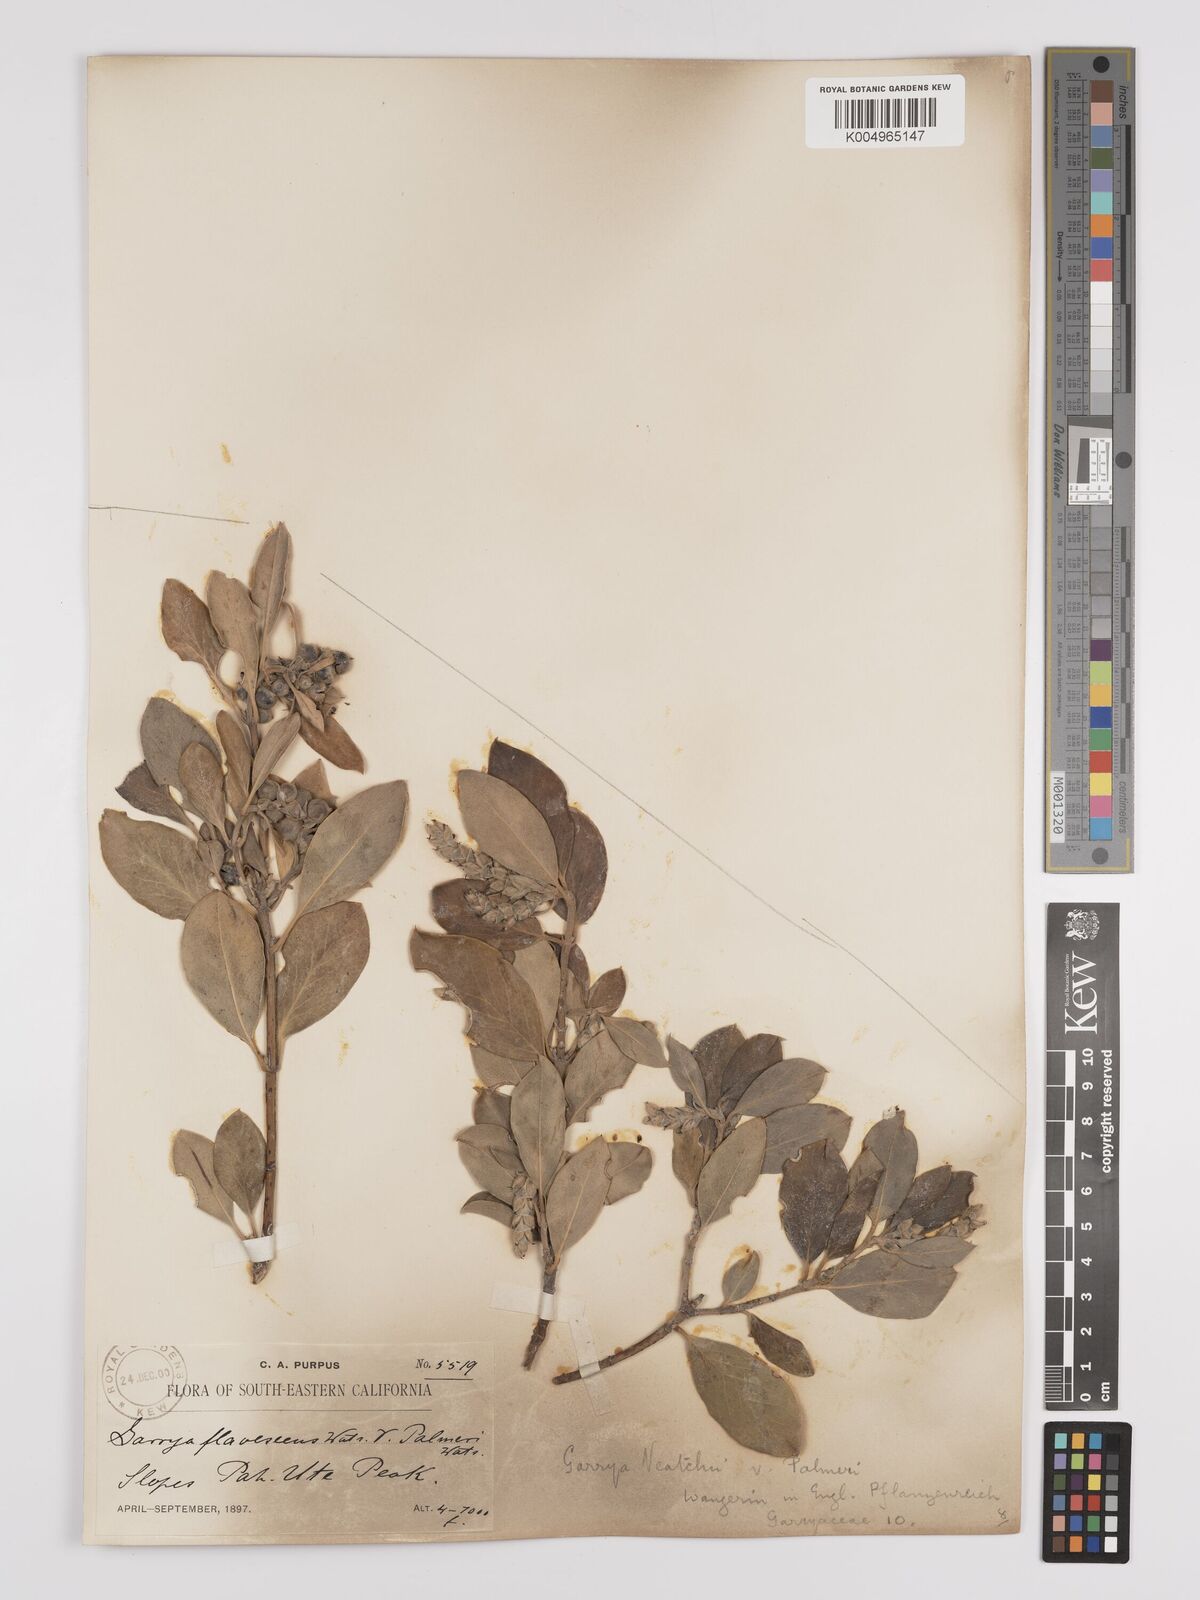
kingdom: Plantae
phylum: Tracheophyta
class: Magnoliopsida
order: Garryales
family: Garryaceae
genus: Garrya
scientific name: Garrya veatchii
